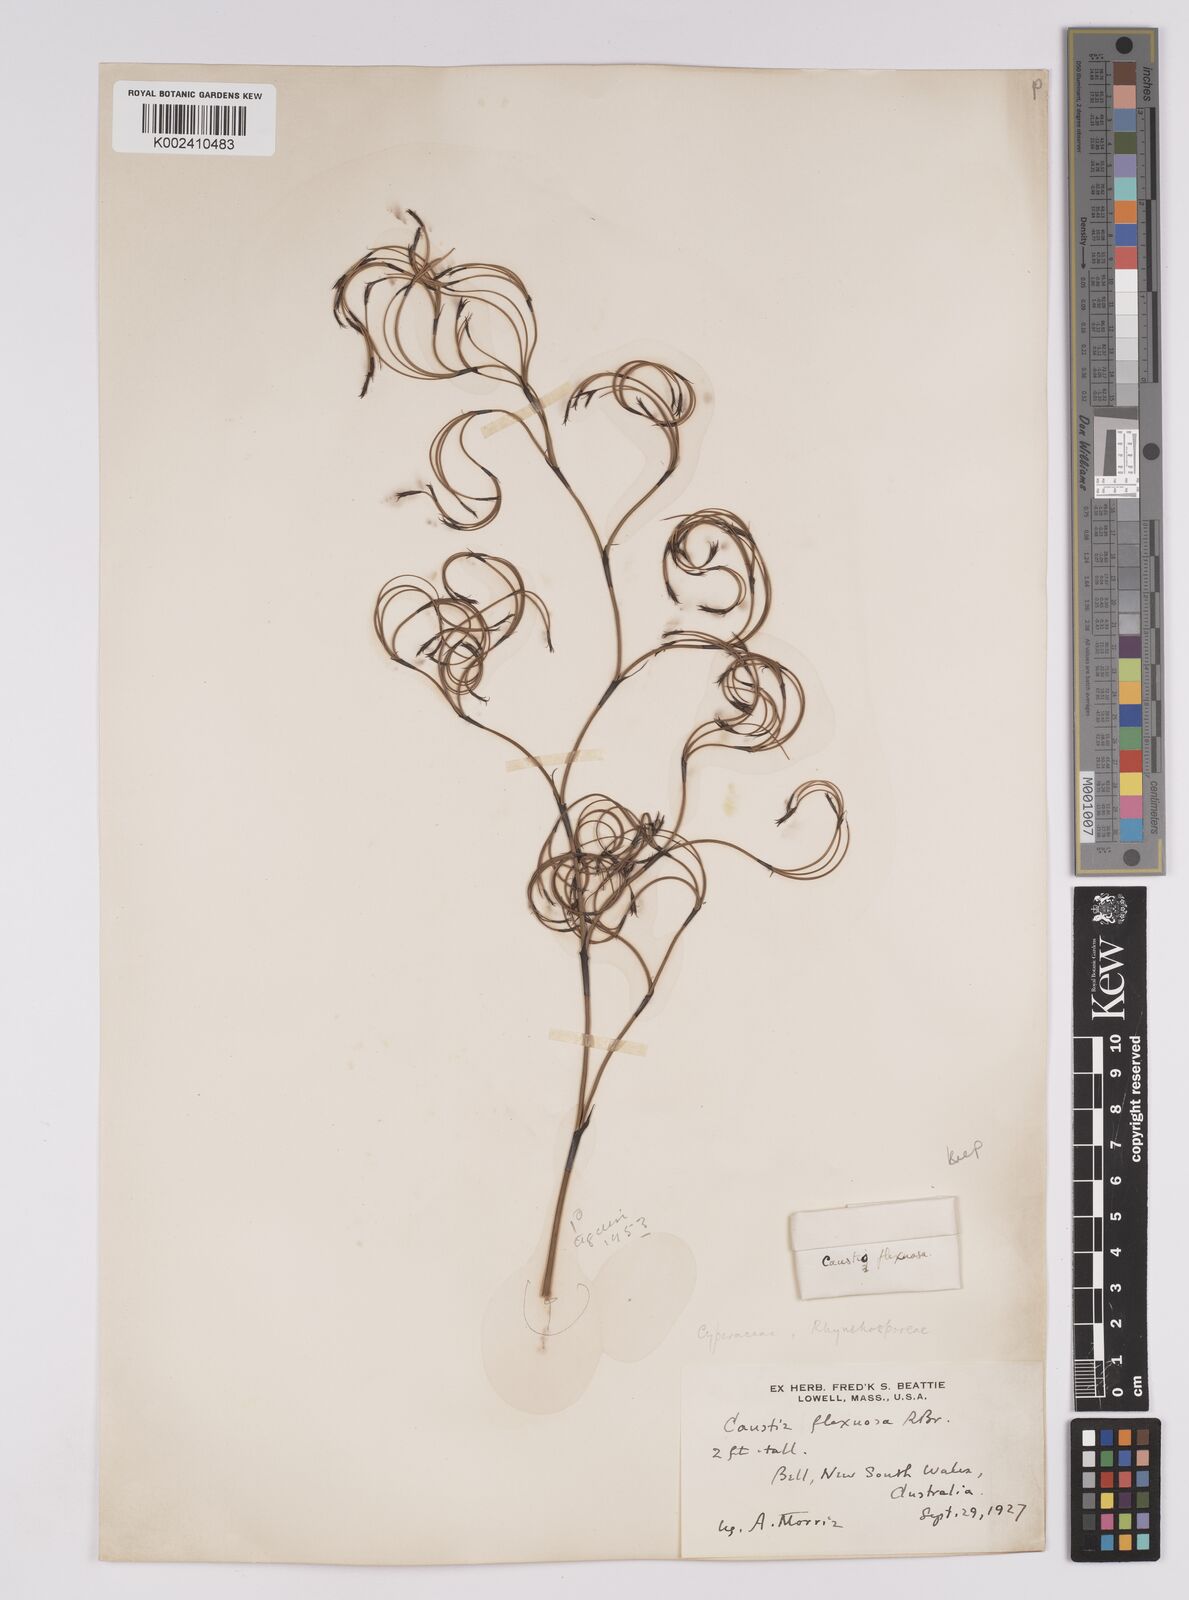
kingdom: Plantae
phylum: Tracheophyta
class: Liliopsida
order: Poales
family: Cyperaceae
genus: Caustis
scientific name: Caustis flexuosa
